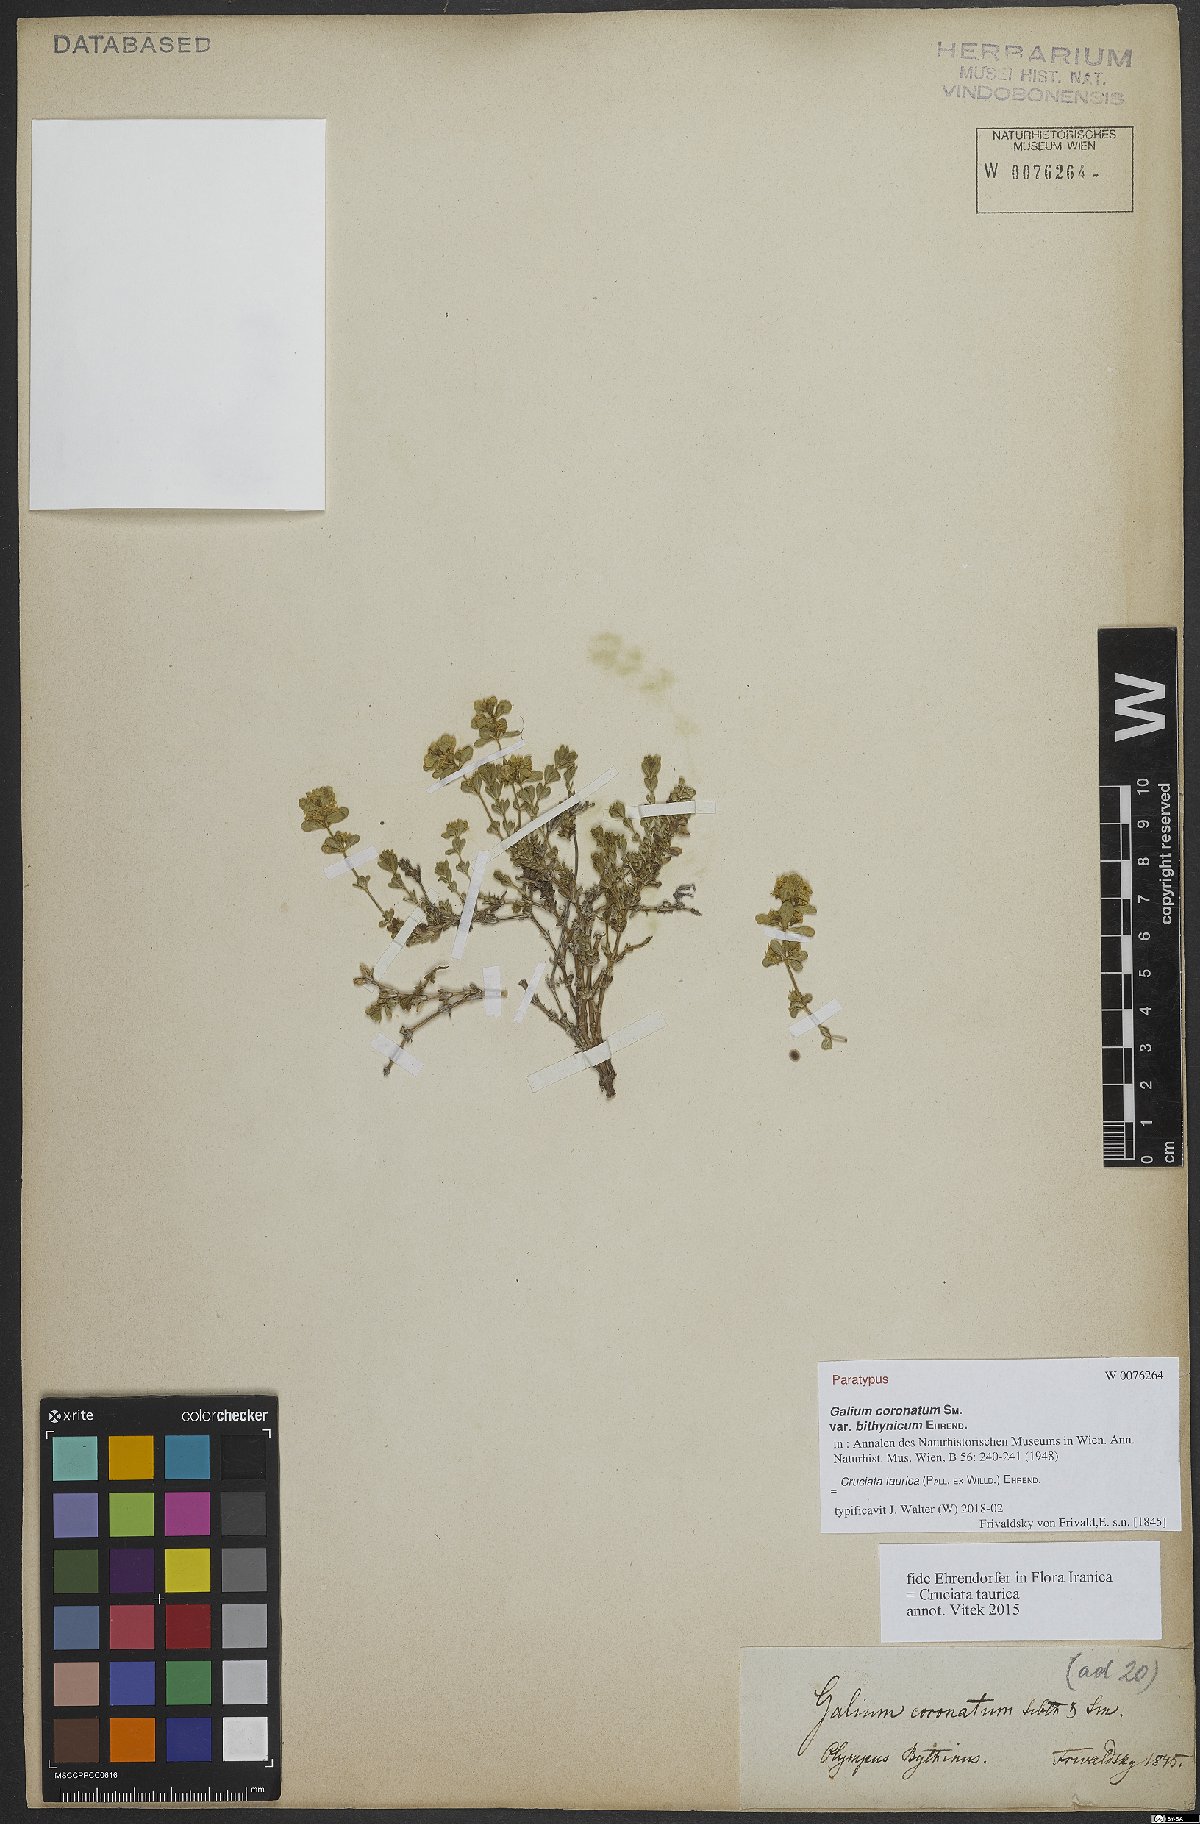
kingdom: Plantae
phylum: Tracheophyta
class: Magnoliopsida
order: Gentianales
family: Rubiaceae
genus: Cruciata
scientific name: Cruciata taurica
